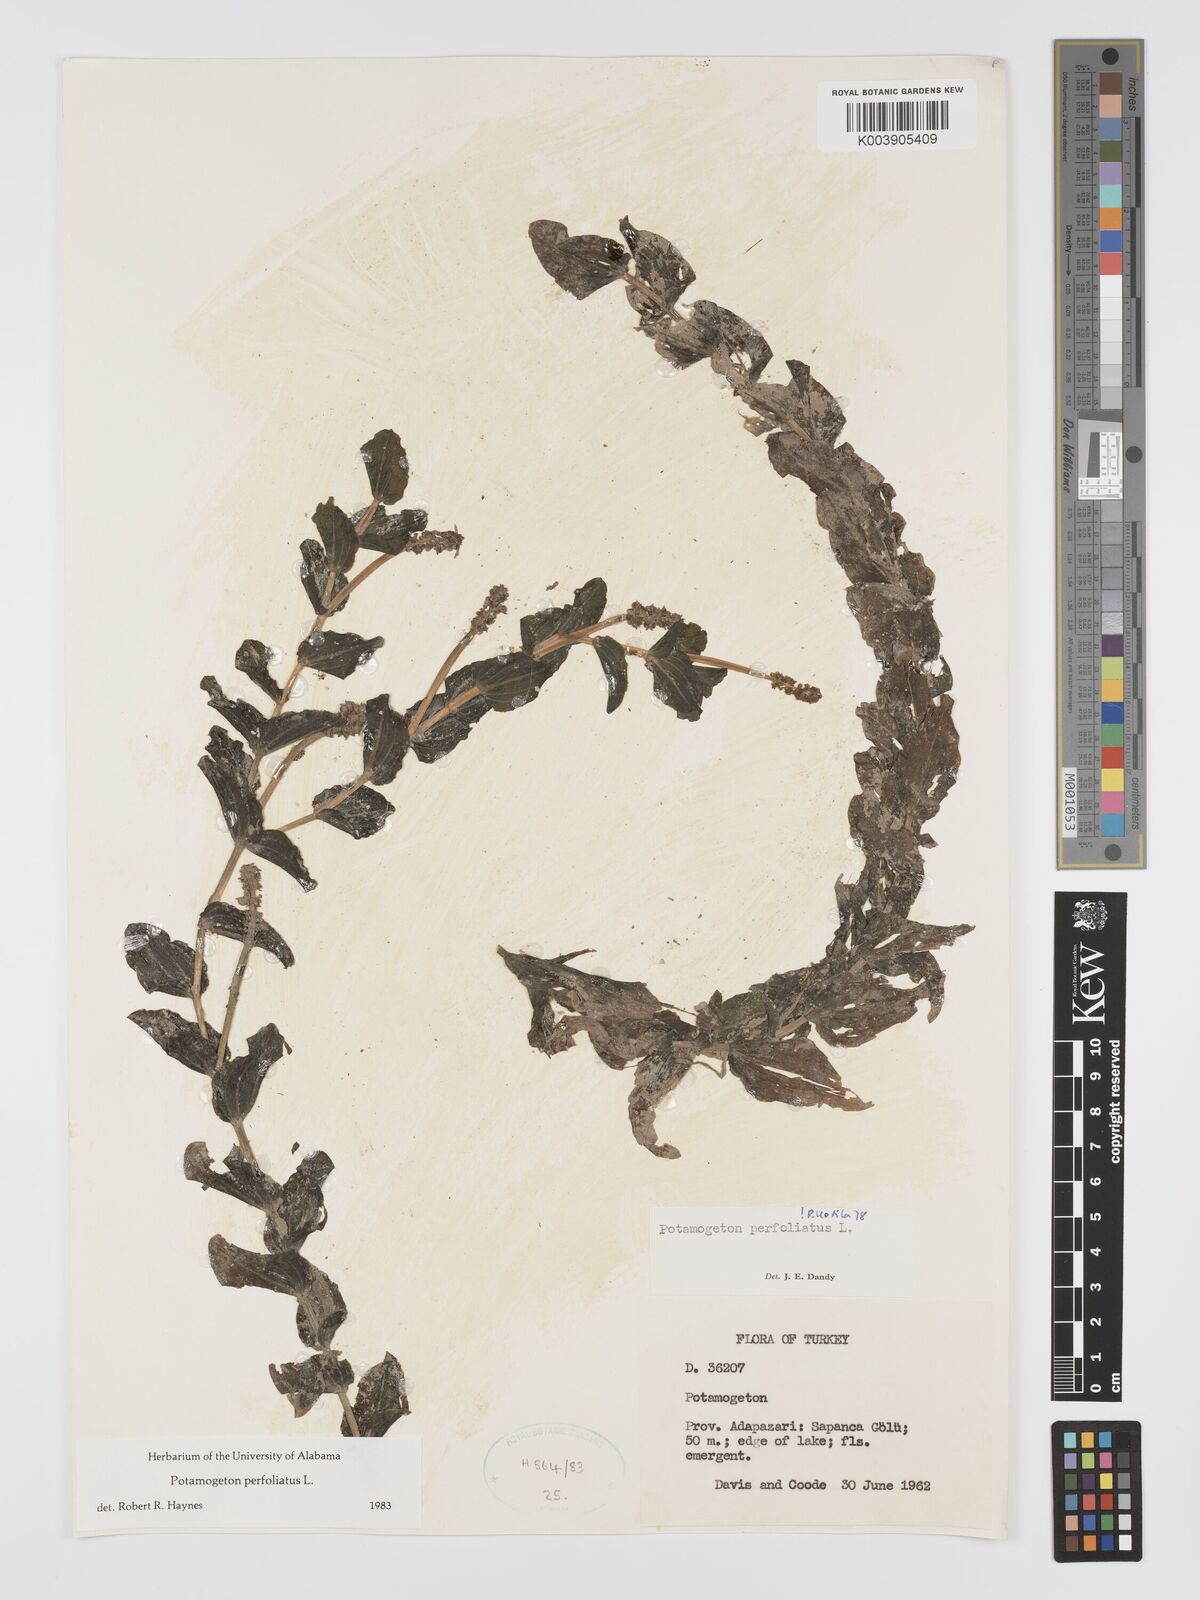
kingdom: Plantae
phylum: Tracheophyta
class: Liliopsida
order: Alismatales
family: Potamogetonaceae
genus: Potamogeton
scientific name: Potamogeton perfoliatus
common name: Perfoliate pondweed
